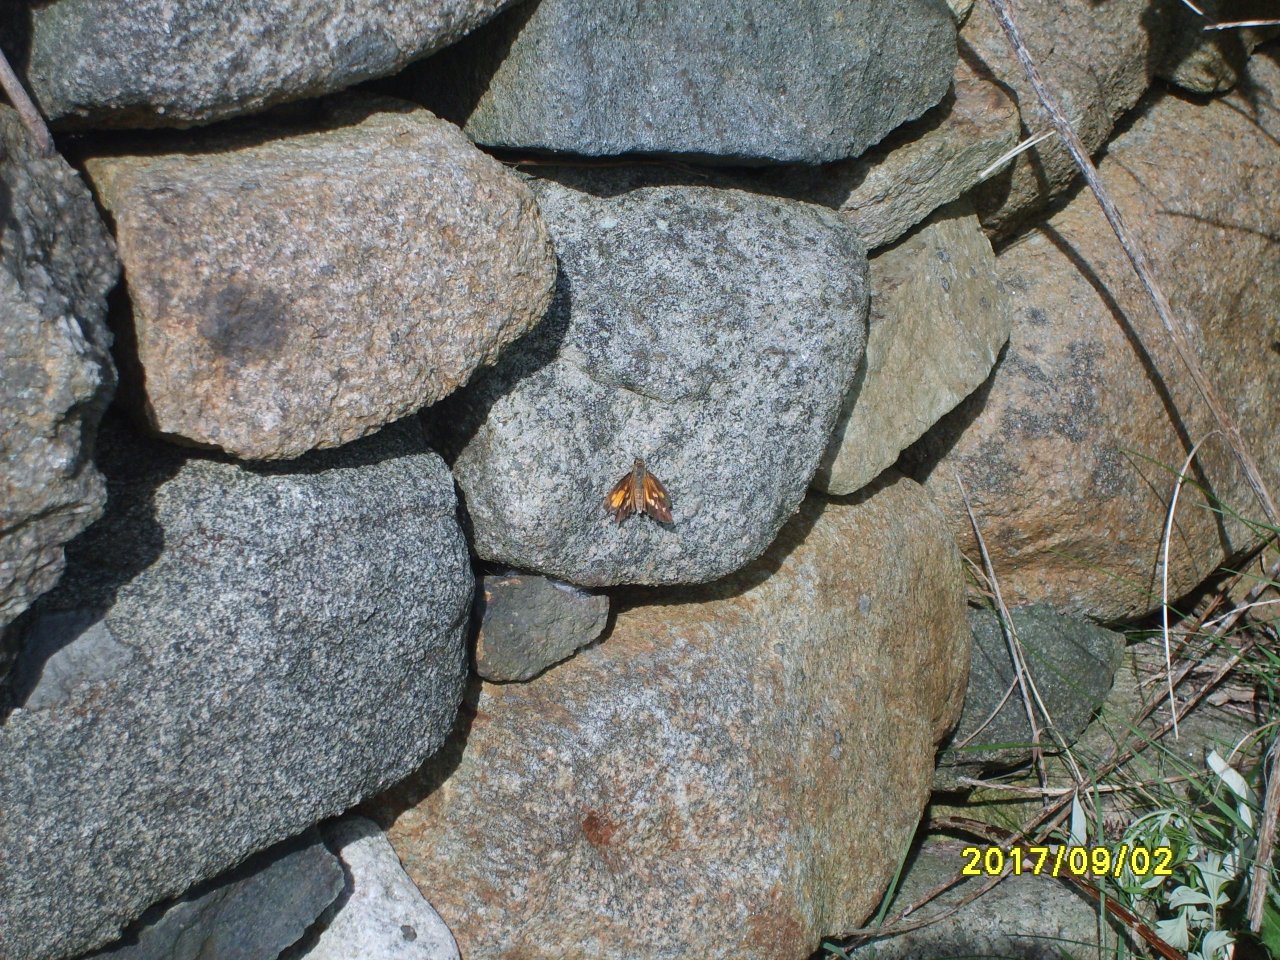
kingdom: Animalia
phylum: Arthropoda
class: Insecta
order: Lepidoptera
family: Hesperiidae
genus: Poanes
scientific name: Poanes viator
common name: Broad-winged Skipper
